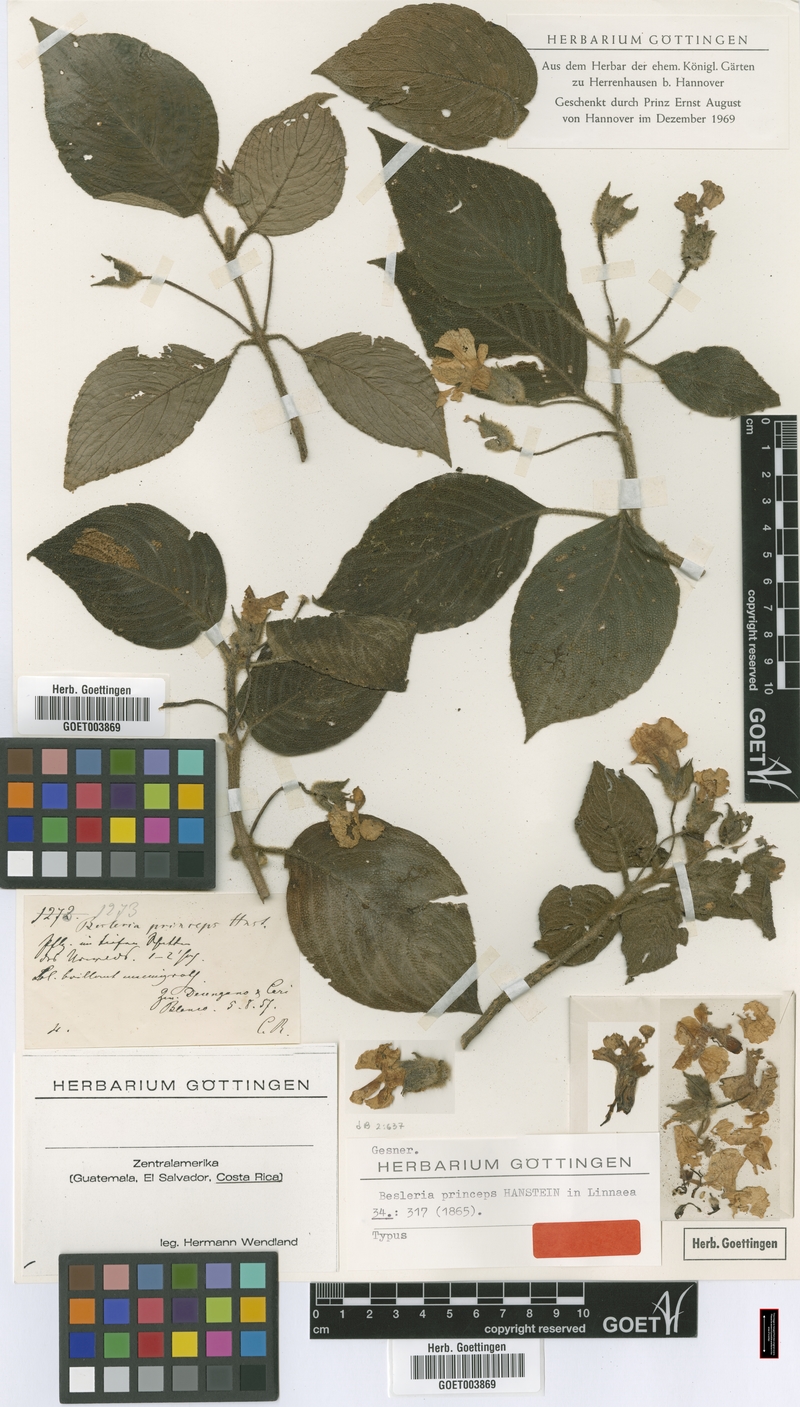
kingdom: Plantae
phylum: Tracheophyta
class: Magnoliopsida
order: Lamiales
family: Gesneriaceae
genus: Besleria
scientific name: Besleria princeps
